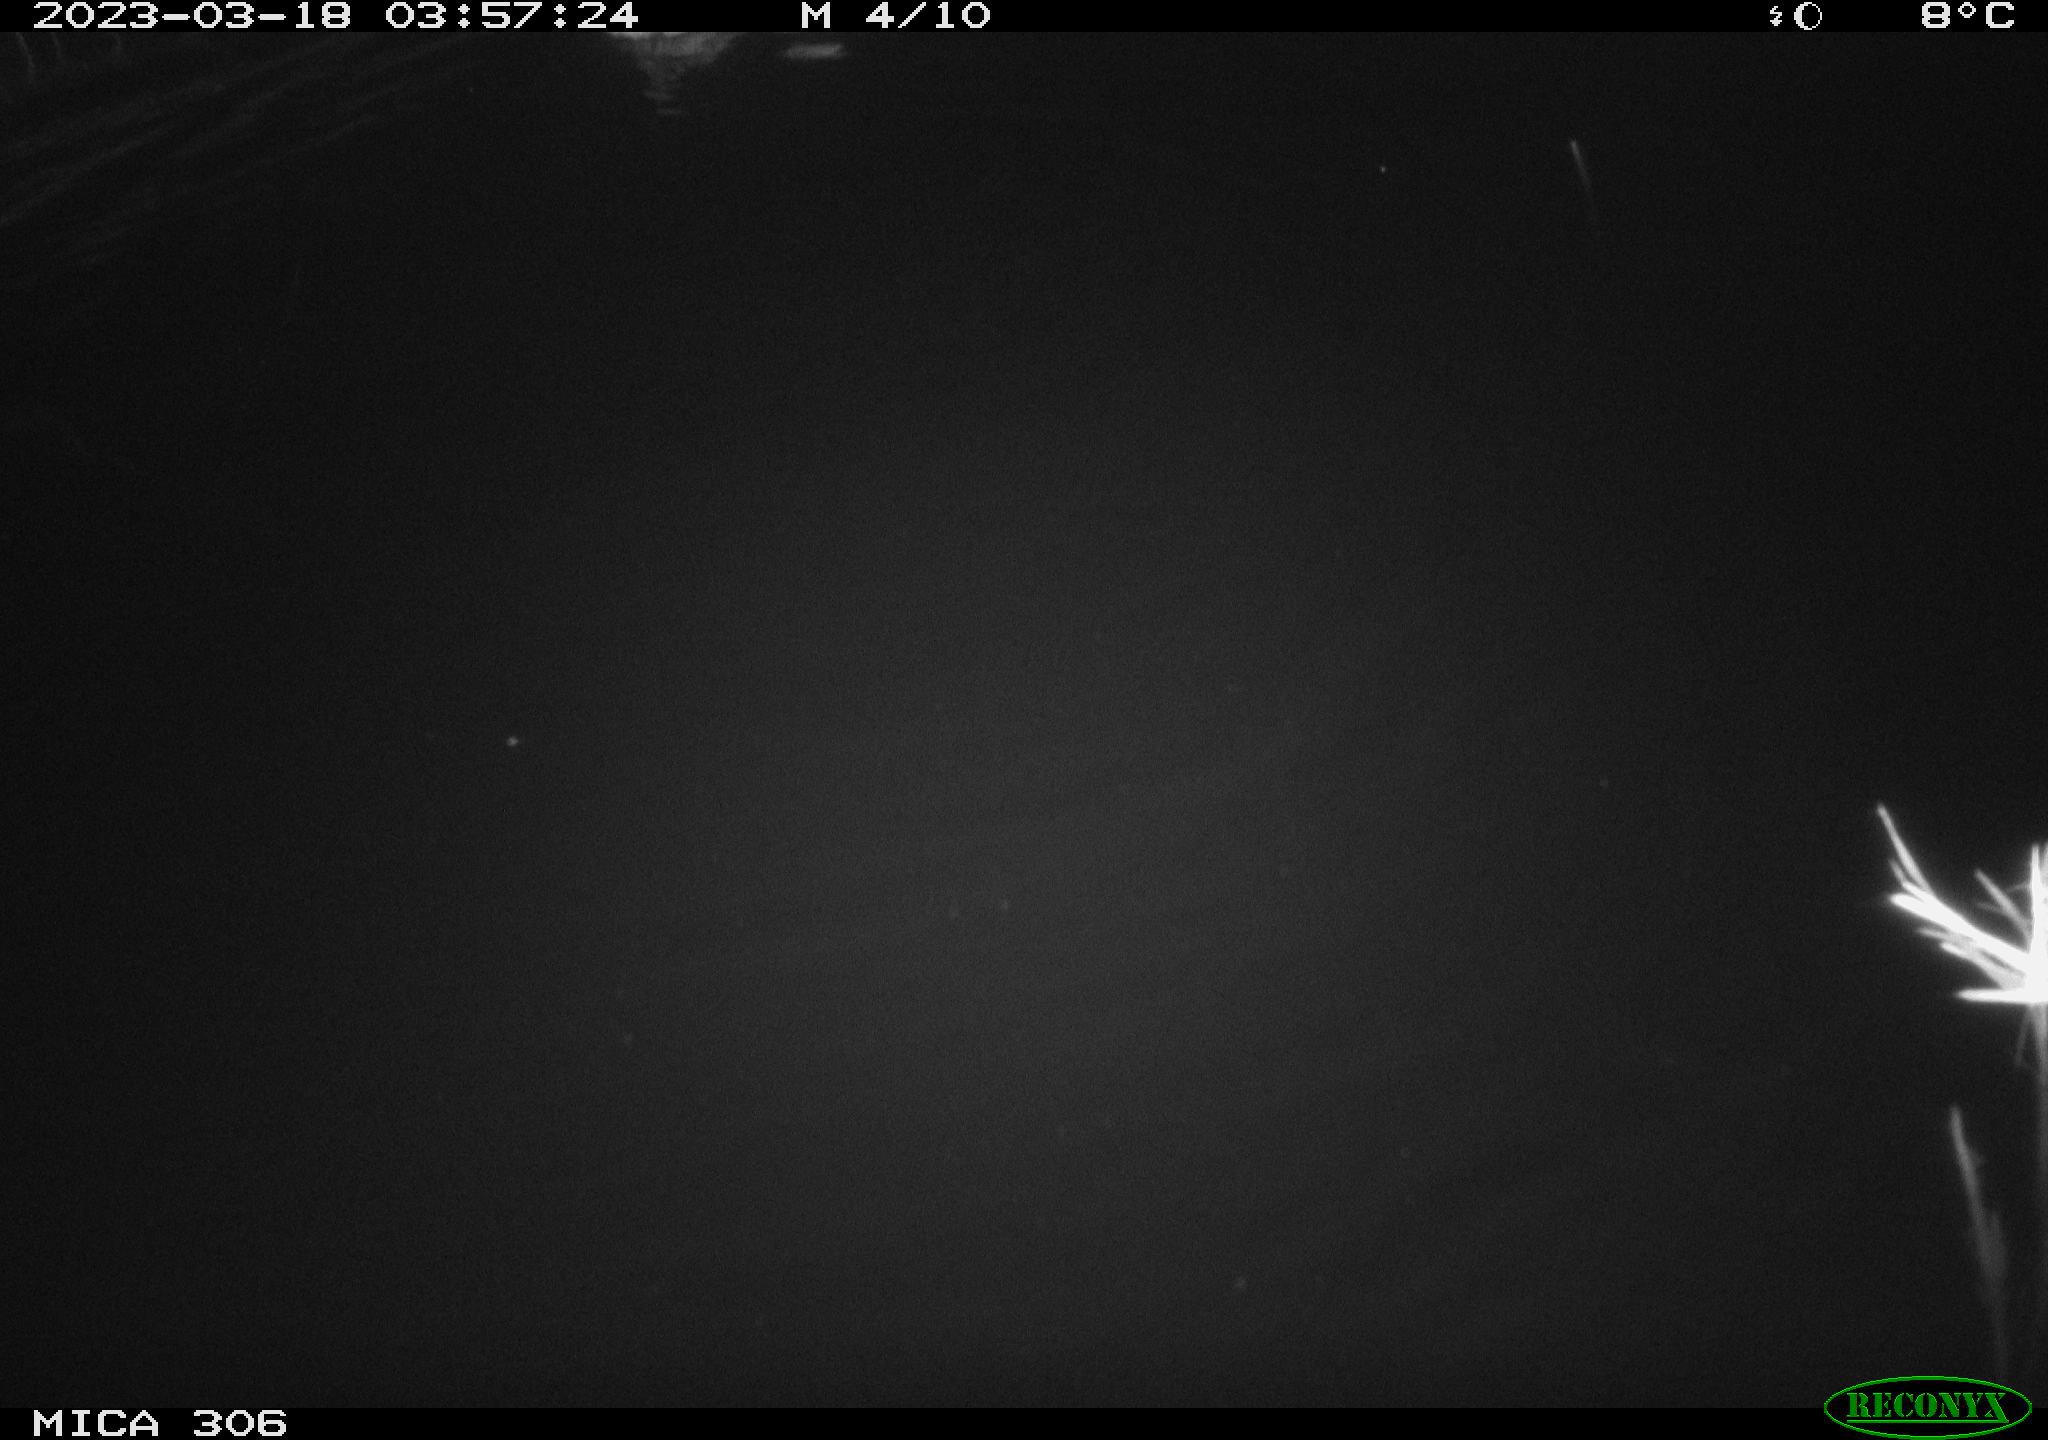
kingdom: Animalia
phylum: Chordata
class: Aves
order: Anseriformes
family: Anatidae
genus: Anas
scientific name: Anas
